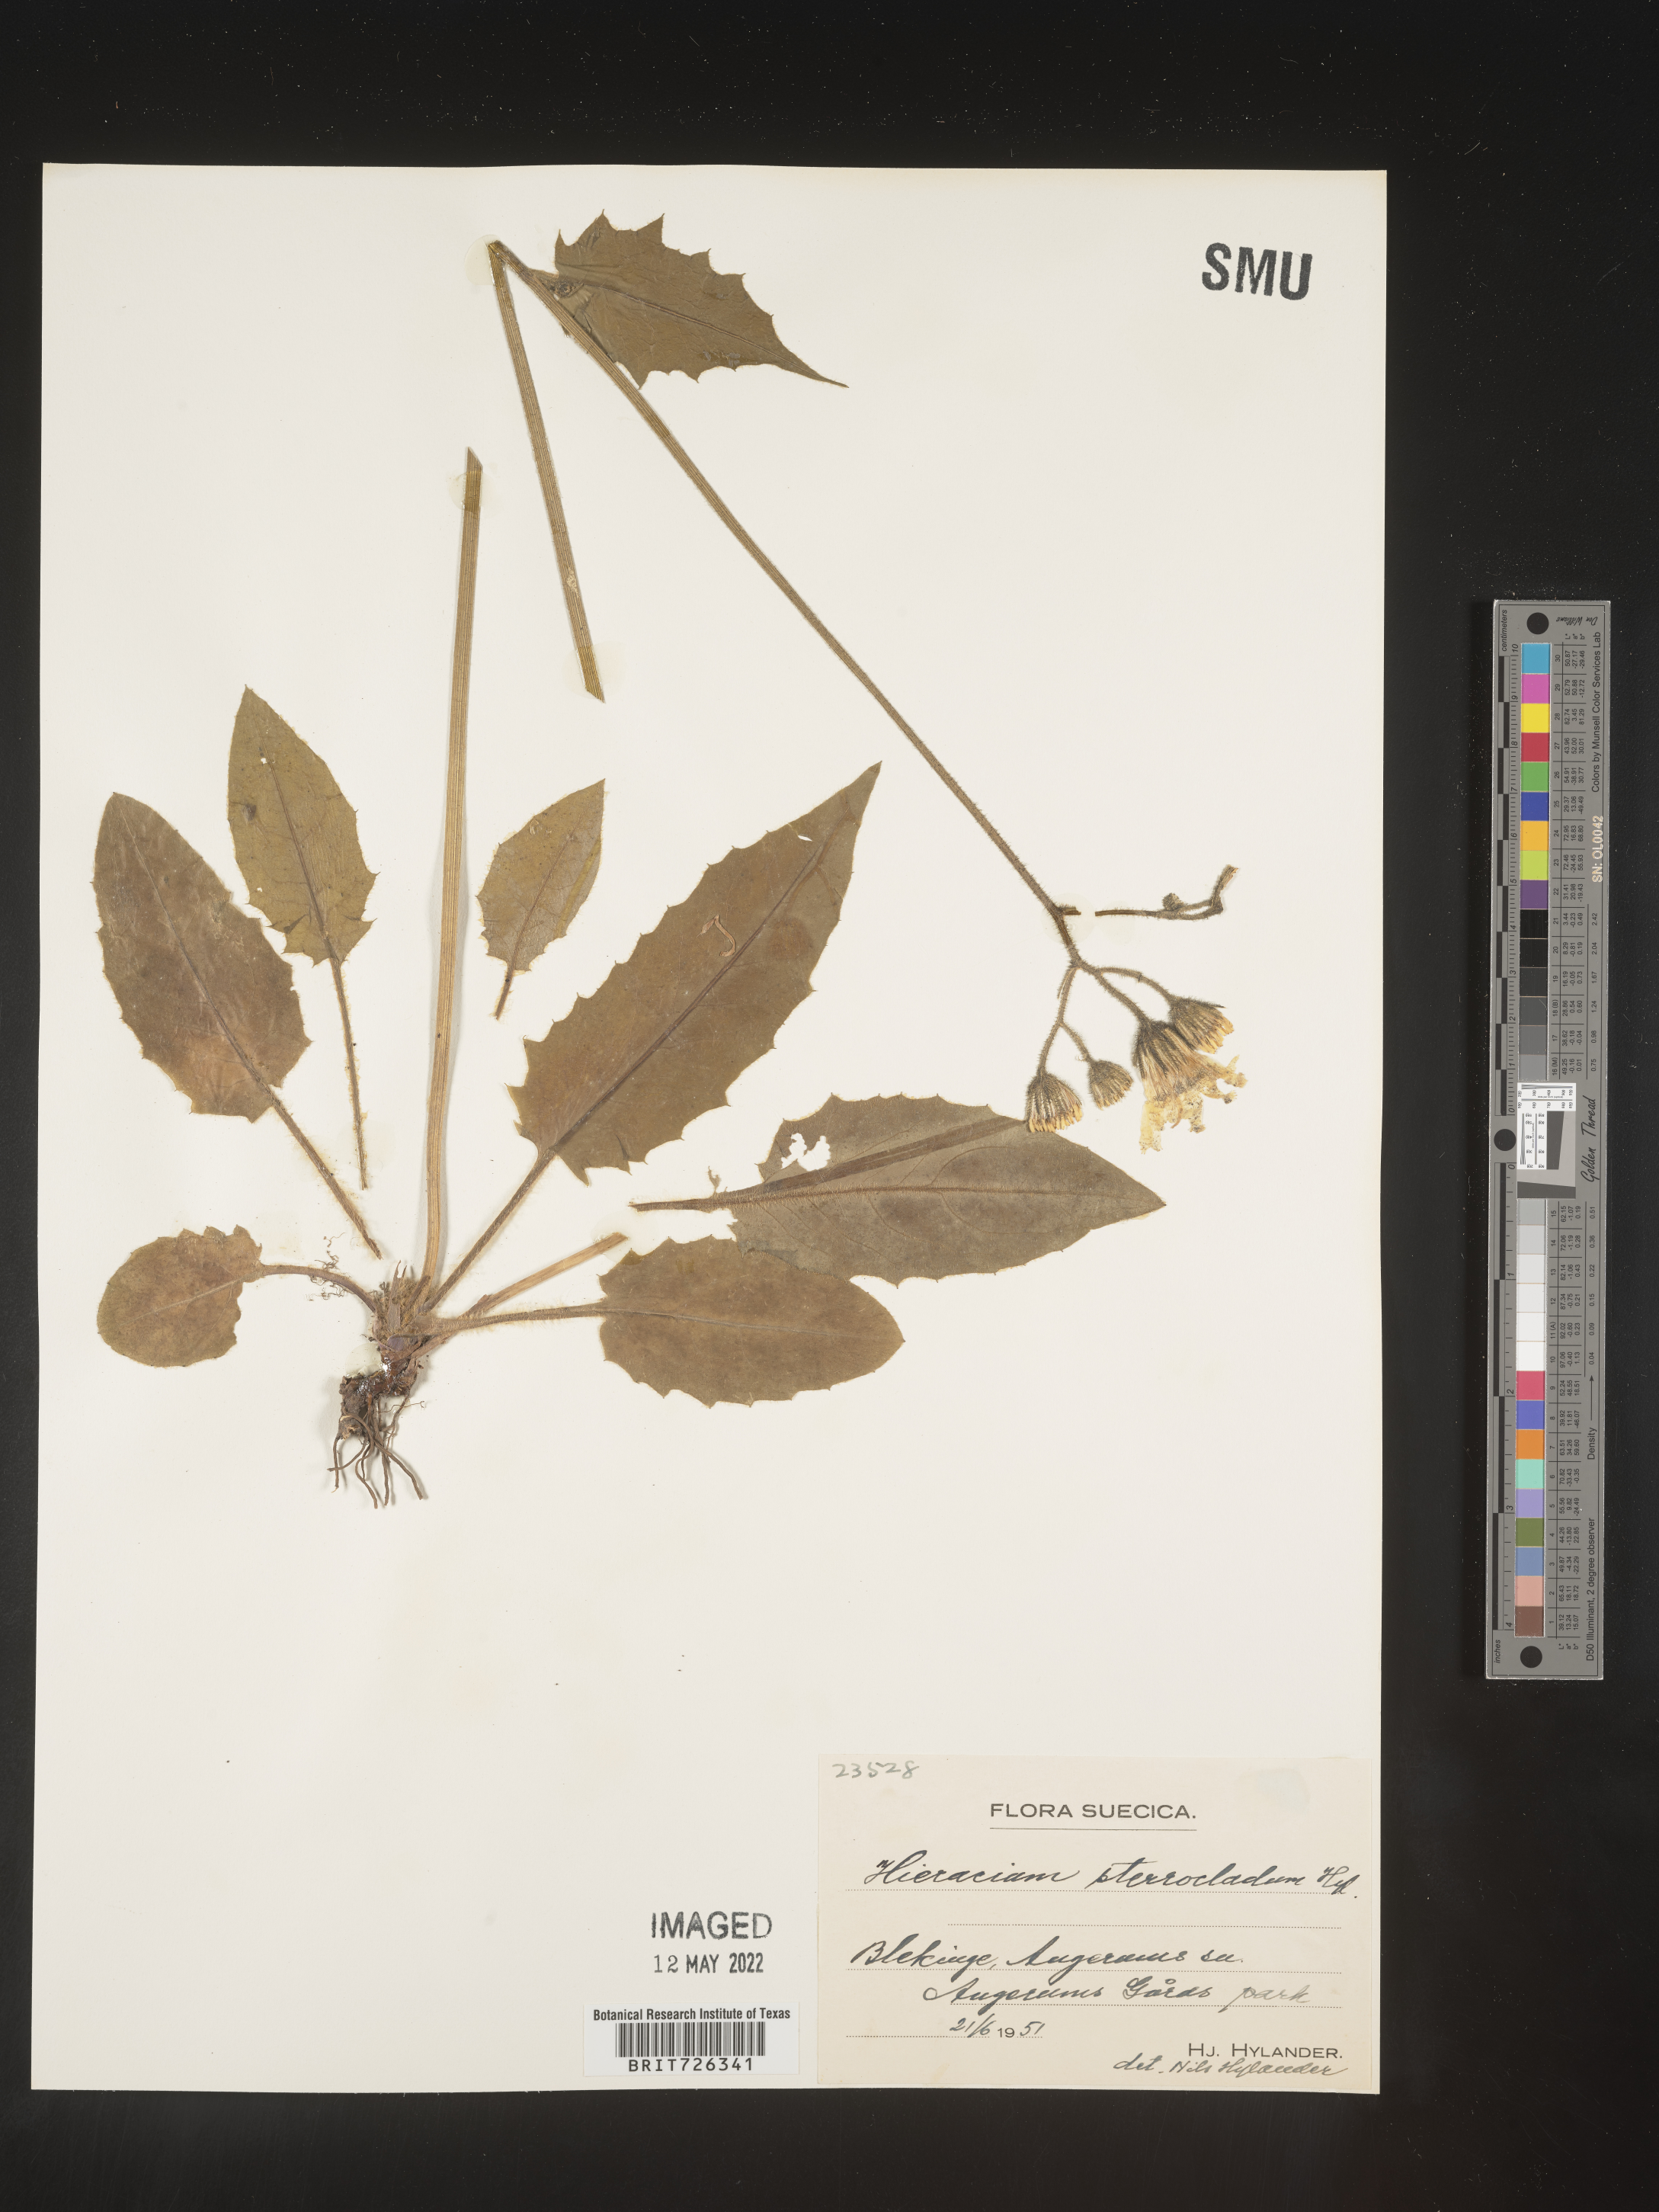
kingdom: Plantae
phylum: Tracheophyta
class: Magnoliopsida
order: Asterales
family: Asteraceae
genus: Hieracium
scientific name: Hieracium
